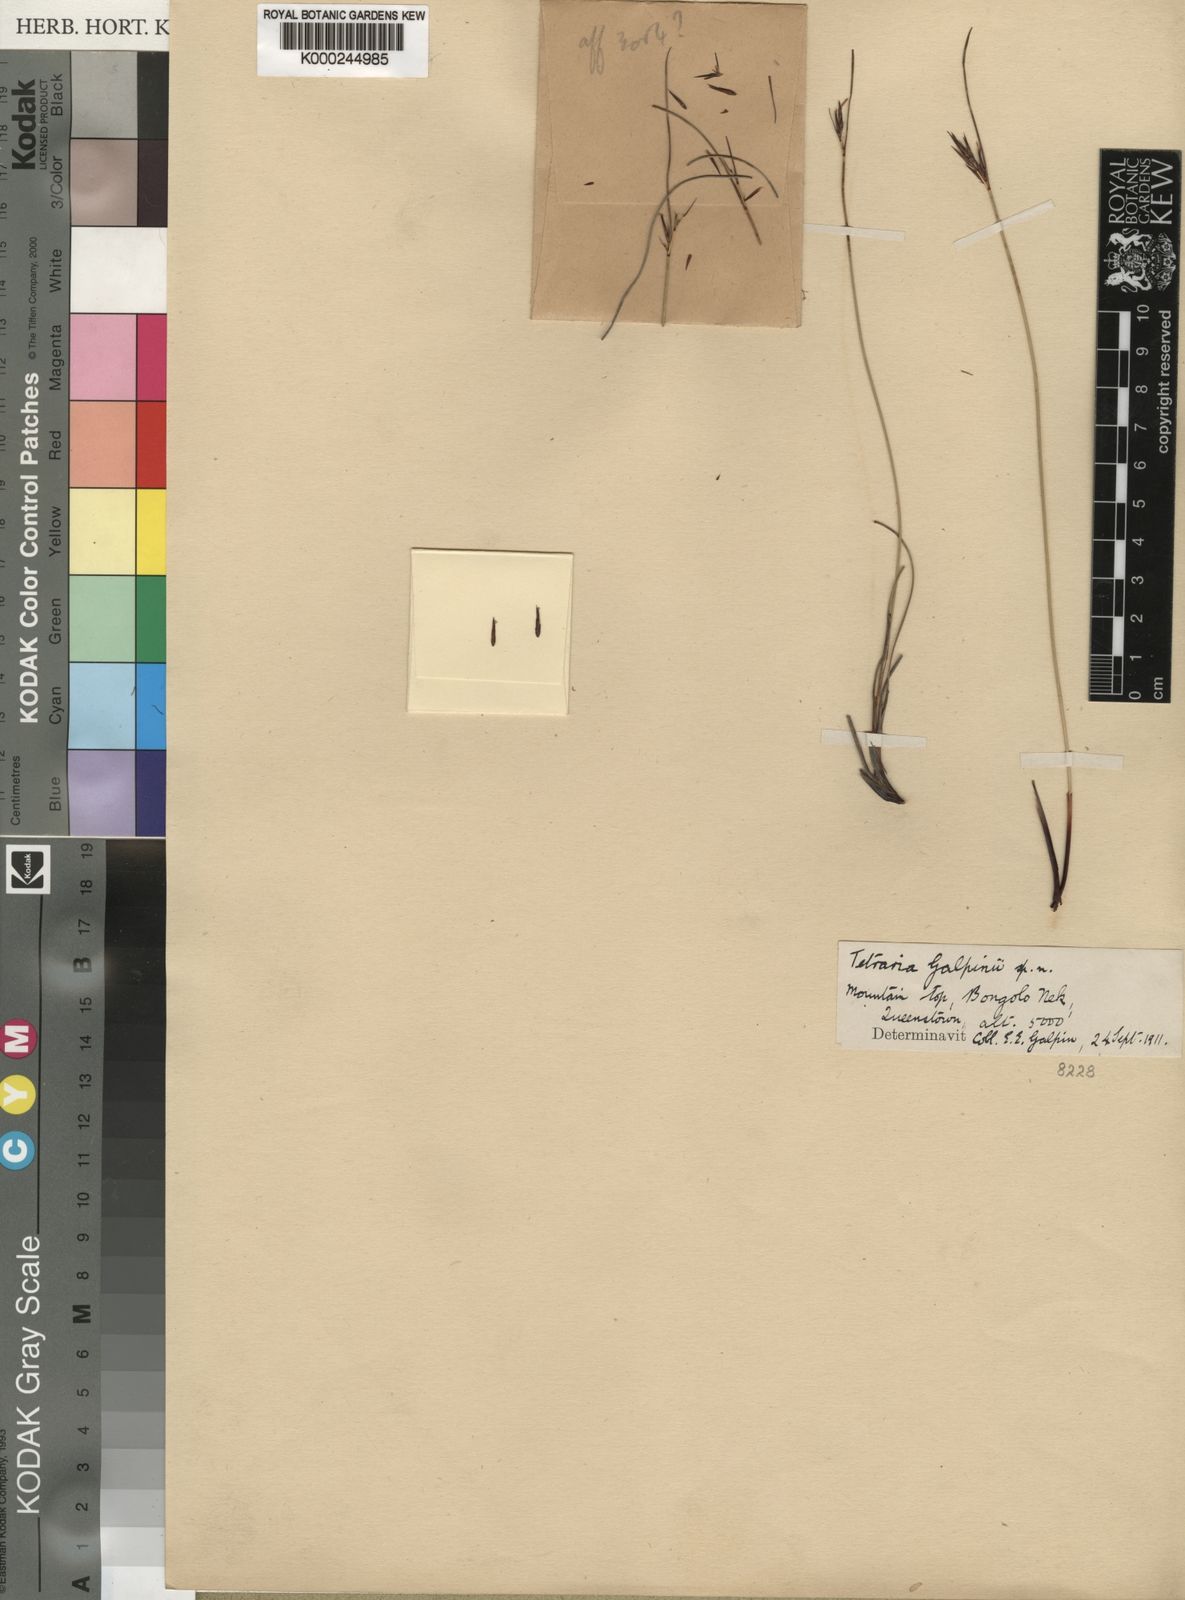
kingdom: Plantae
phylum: Tracheophyta
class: Liliopsida
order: Poales
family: Cyperaceae
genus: Schoenus
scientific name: Schoenus
